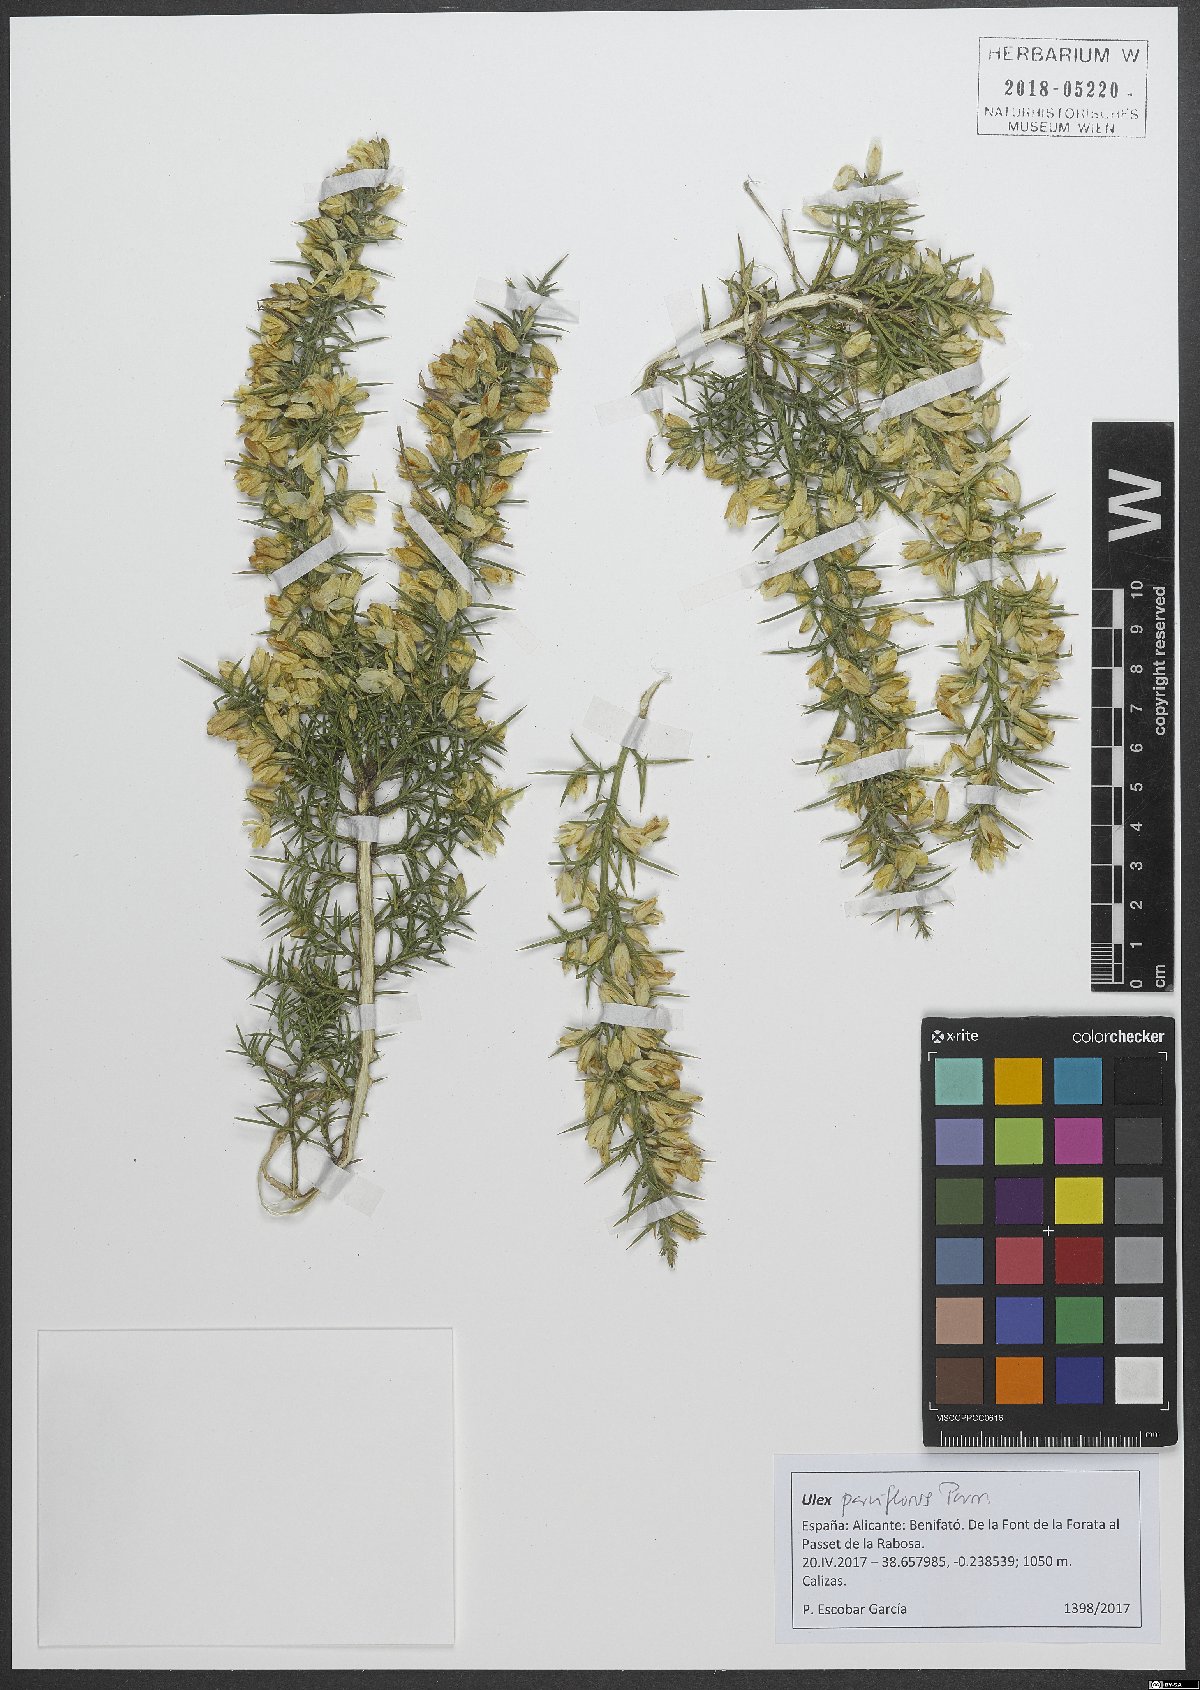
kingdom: Plantae
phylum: Tracheophyta
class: Magnoliopsida
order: Fabales
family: Fabaceae
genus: Ulex
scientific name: Ulex parviflorus
